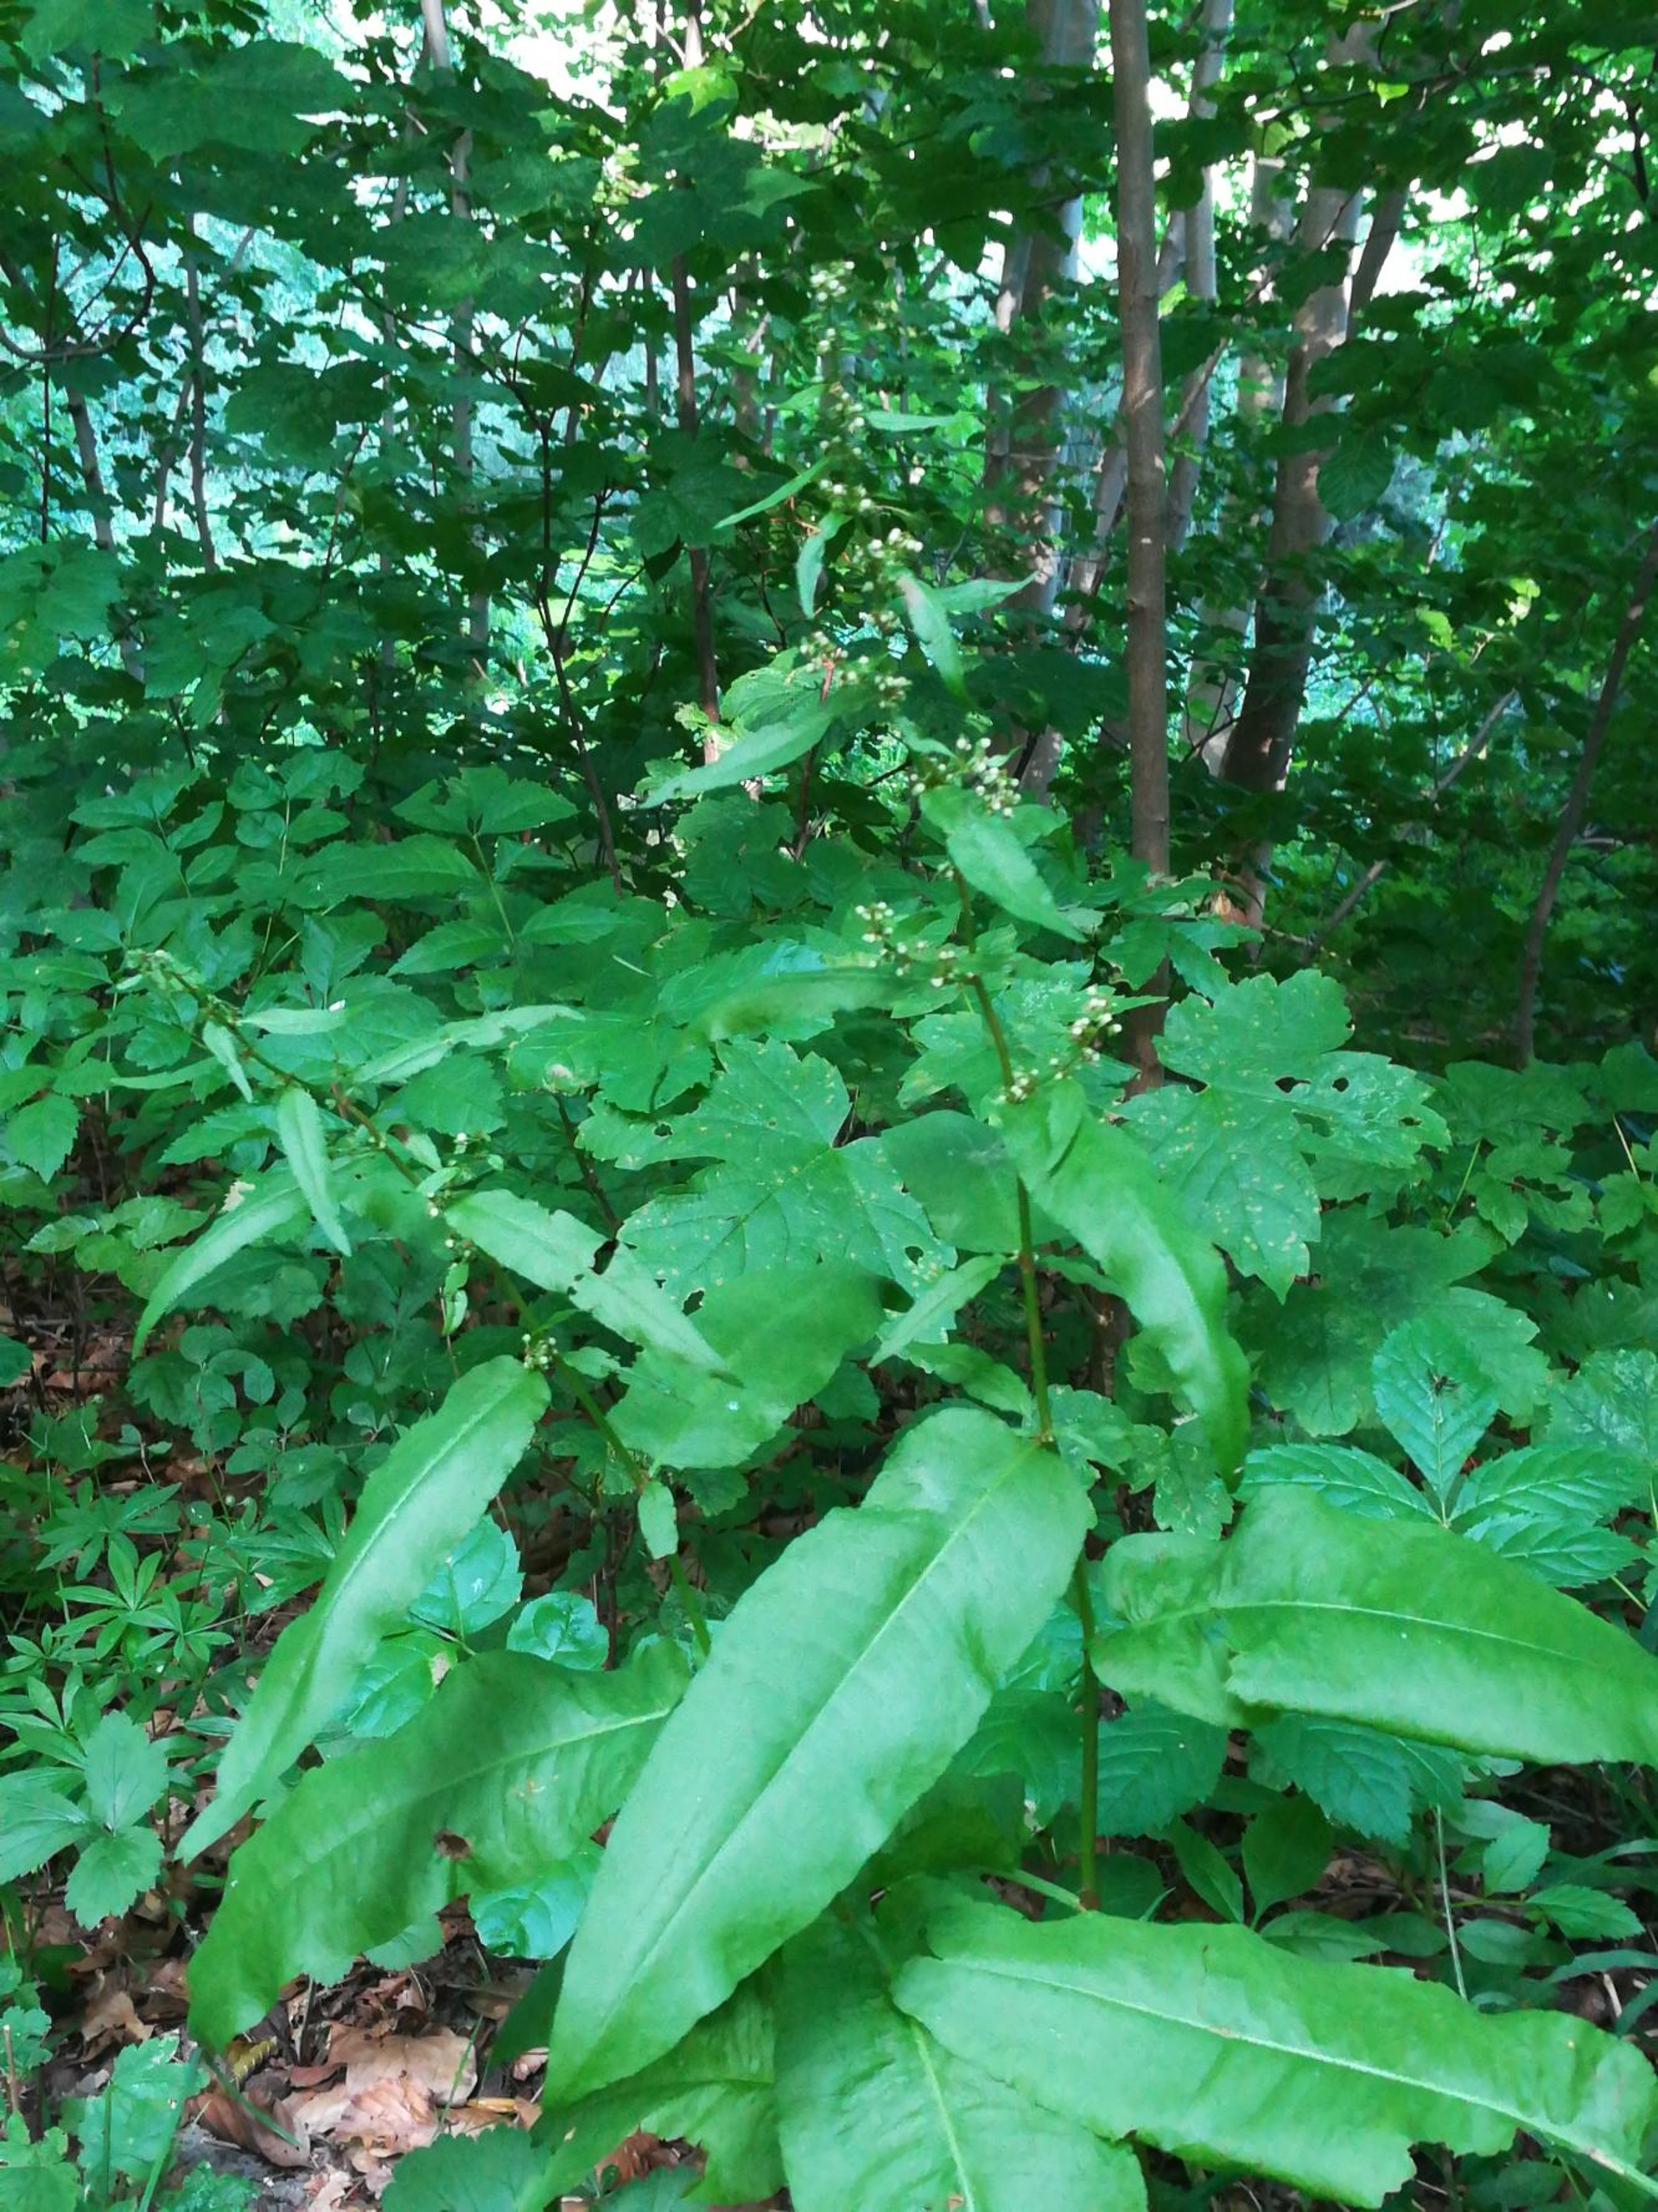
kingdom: Plantae
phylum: Tracheophyta
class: Magnoliopsida
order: Caryophyllales
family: Polygonaceae
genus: Rumex
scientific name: Rumex sanguineus
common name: Skov-skræppe
